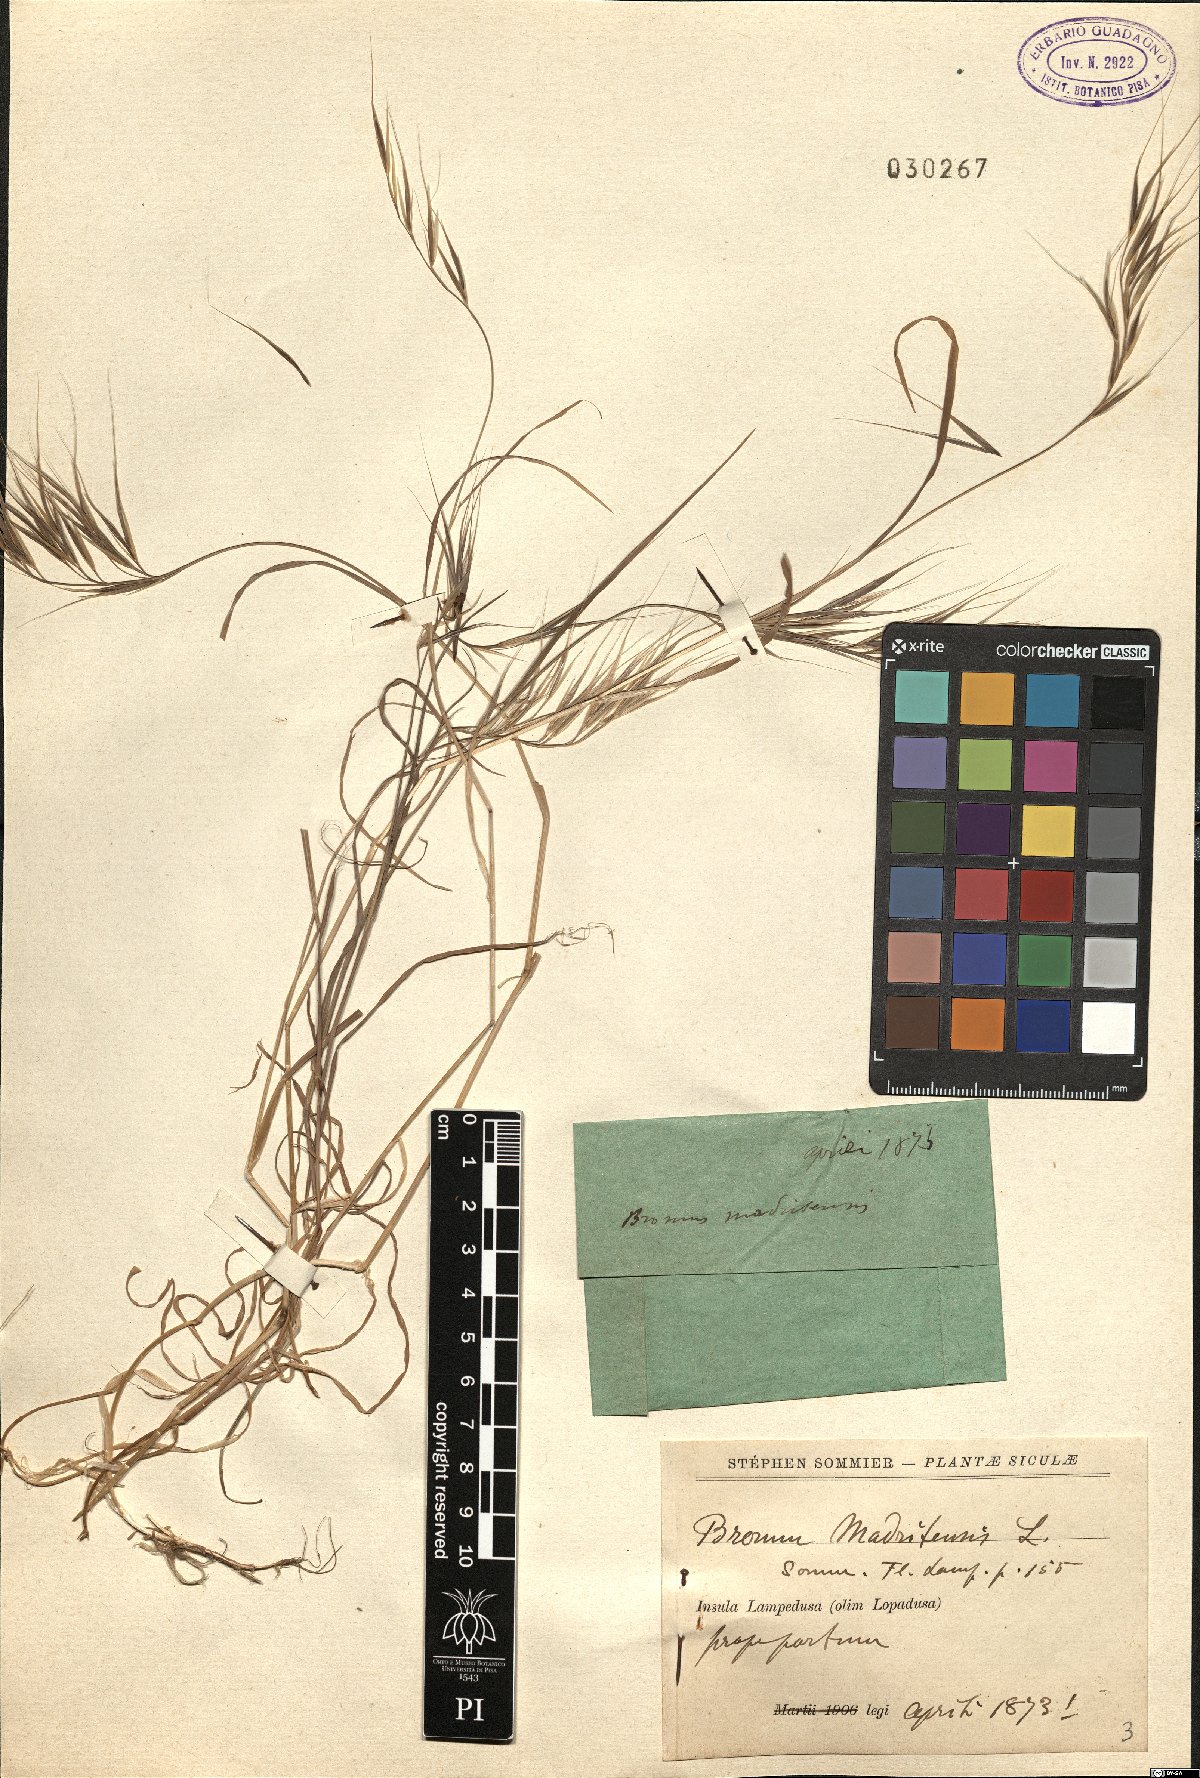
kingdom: Plantae
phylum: Tracheophyta
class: Liliopsida
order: Poales
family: Poaceae
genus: Bromus
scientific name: Bromus madritensis
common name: Compact brome
